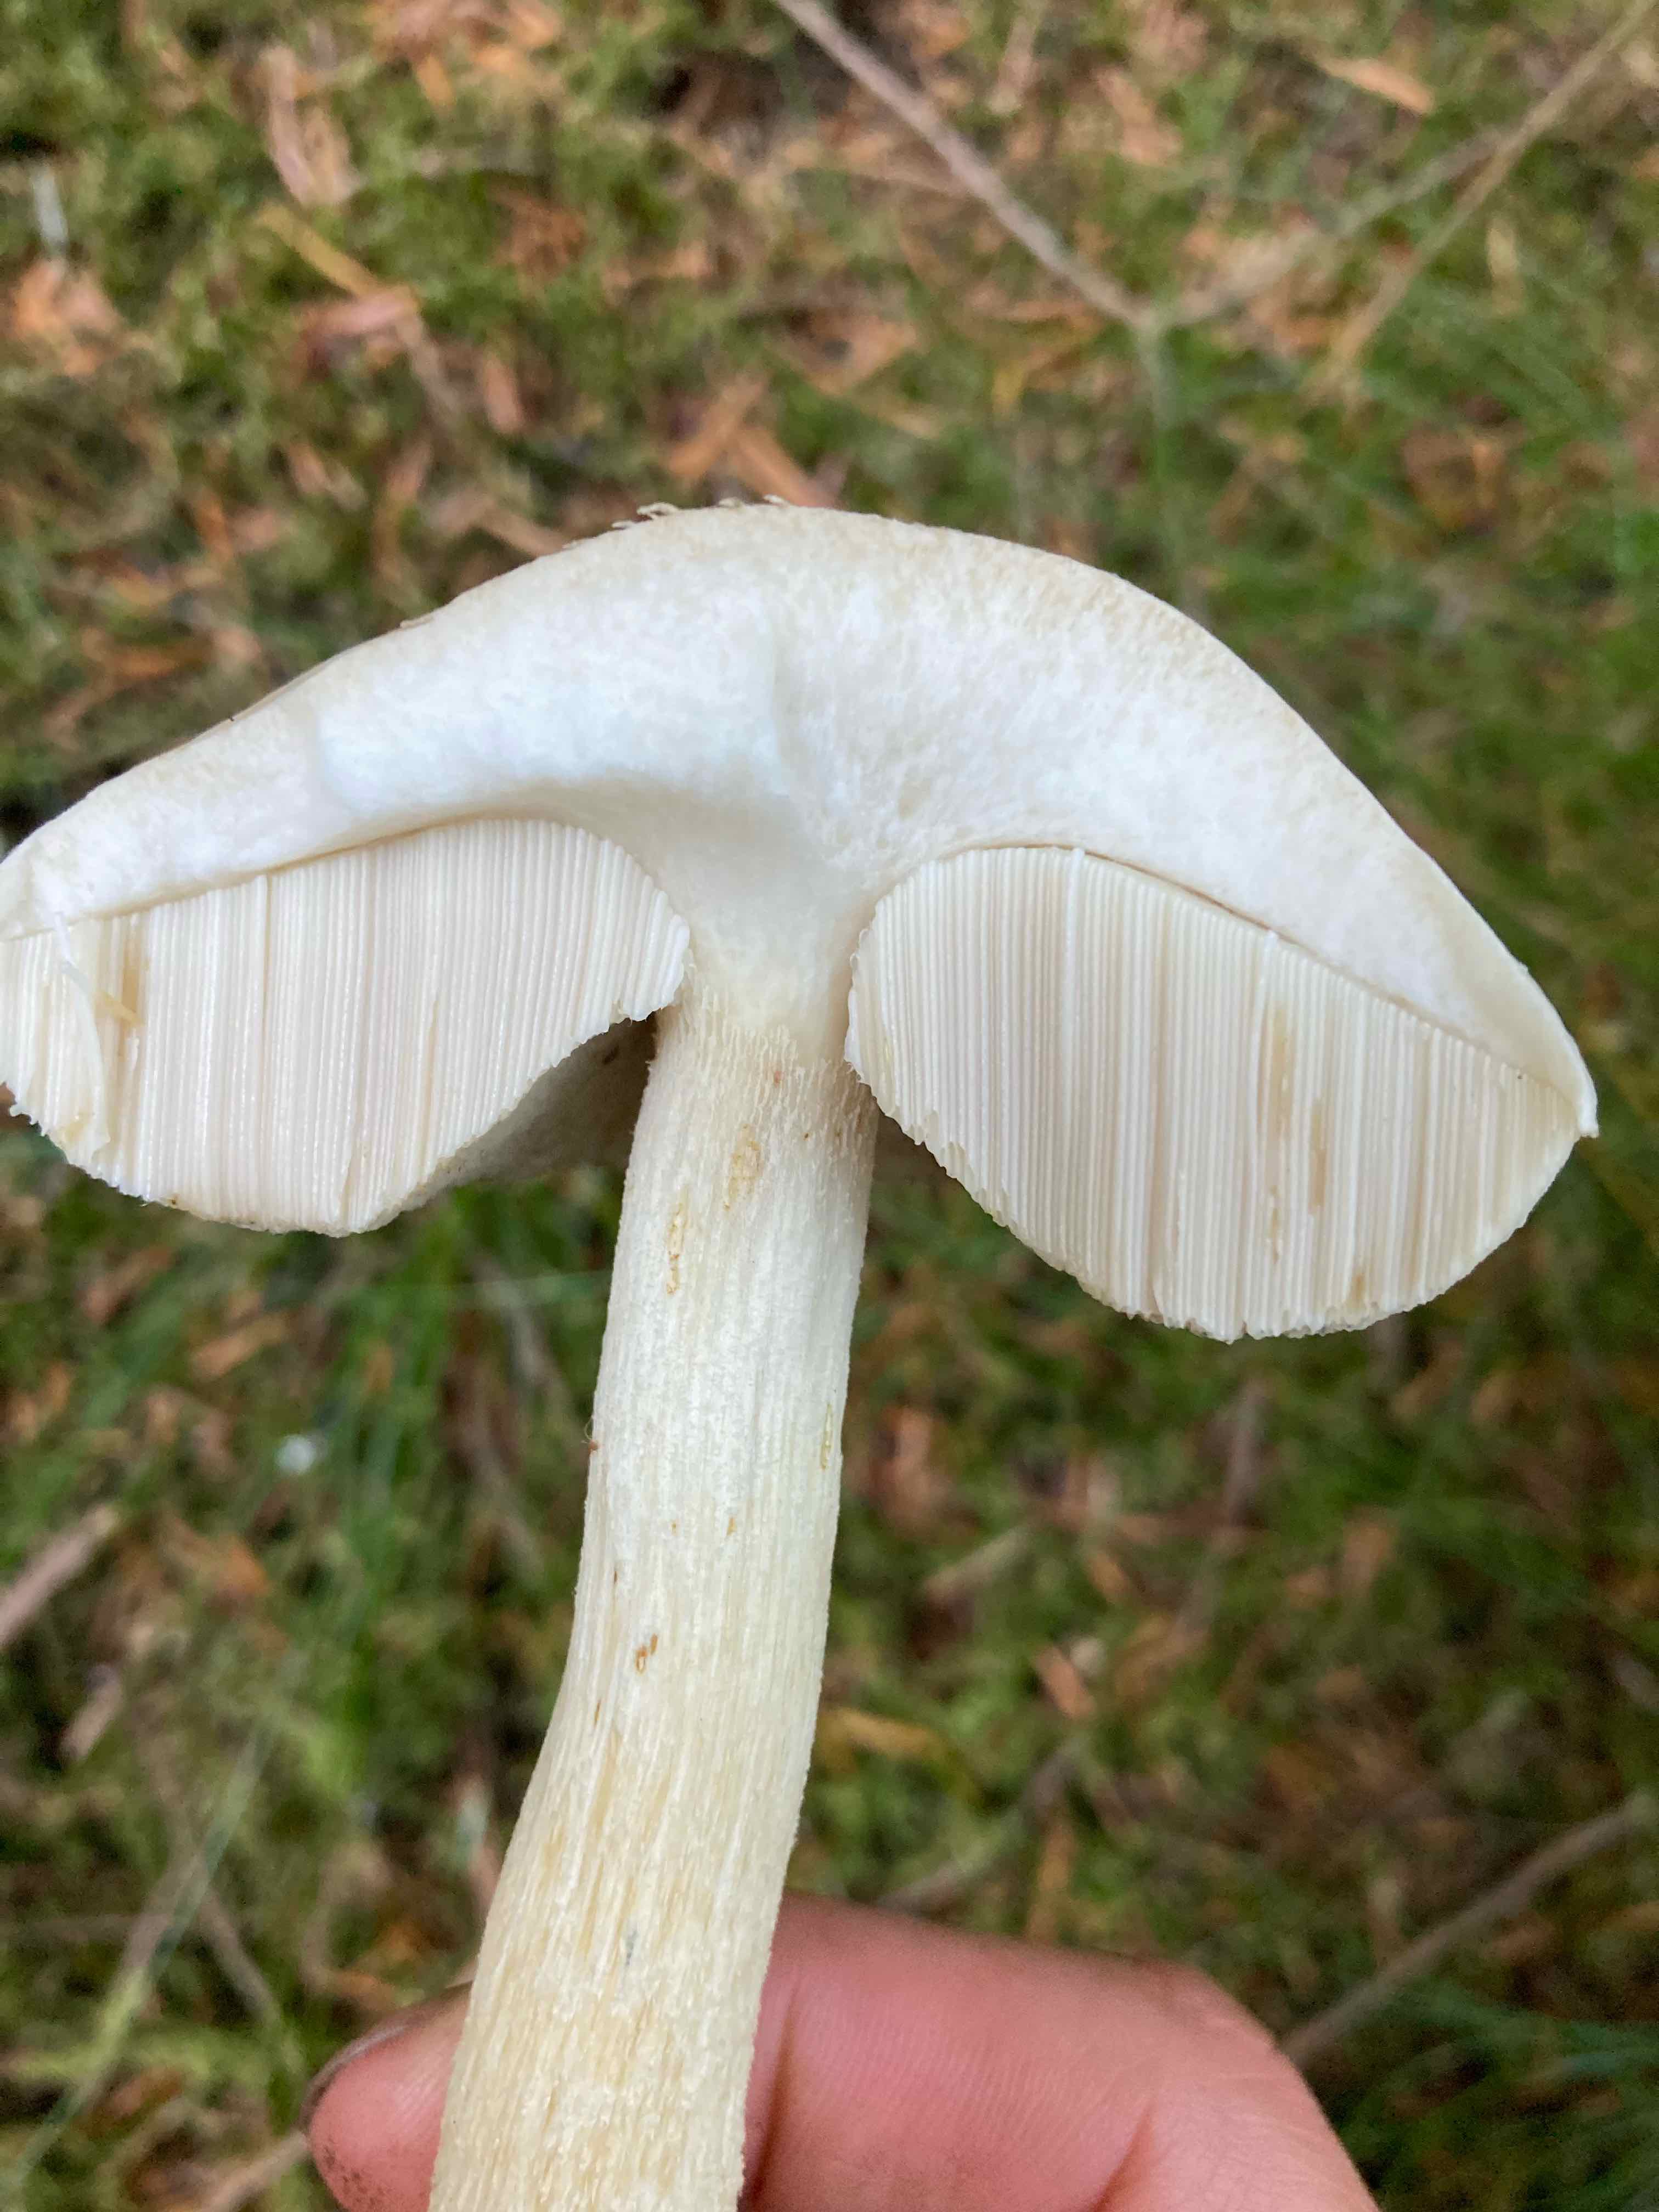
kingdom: Fungi
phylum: Basidiomycota
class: Agaricomycetes
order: Boletales
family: Boletaceae
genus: Leccinum
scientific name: Leccinum scabrum
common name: hvid skælrørhat
